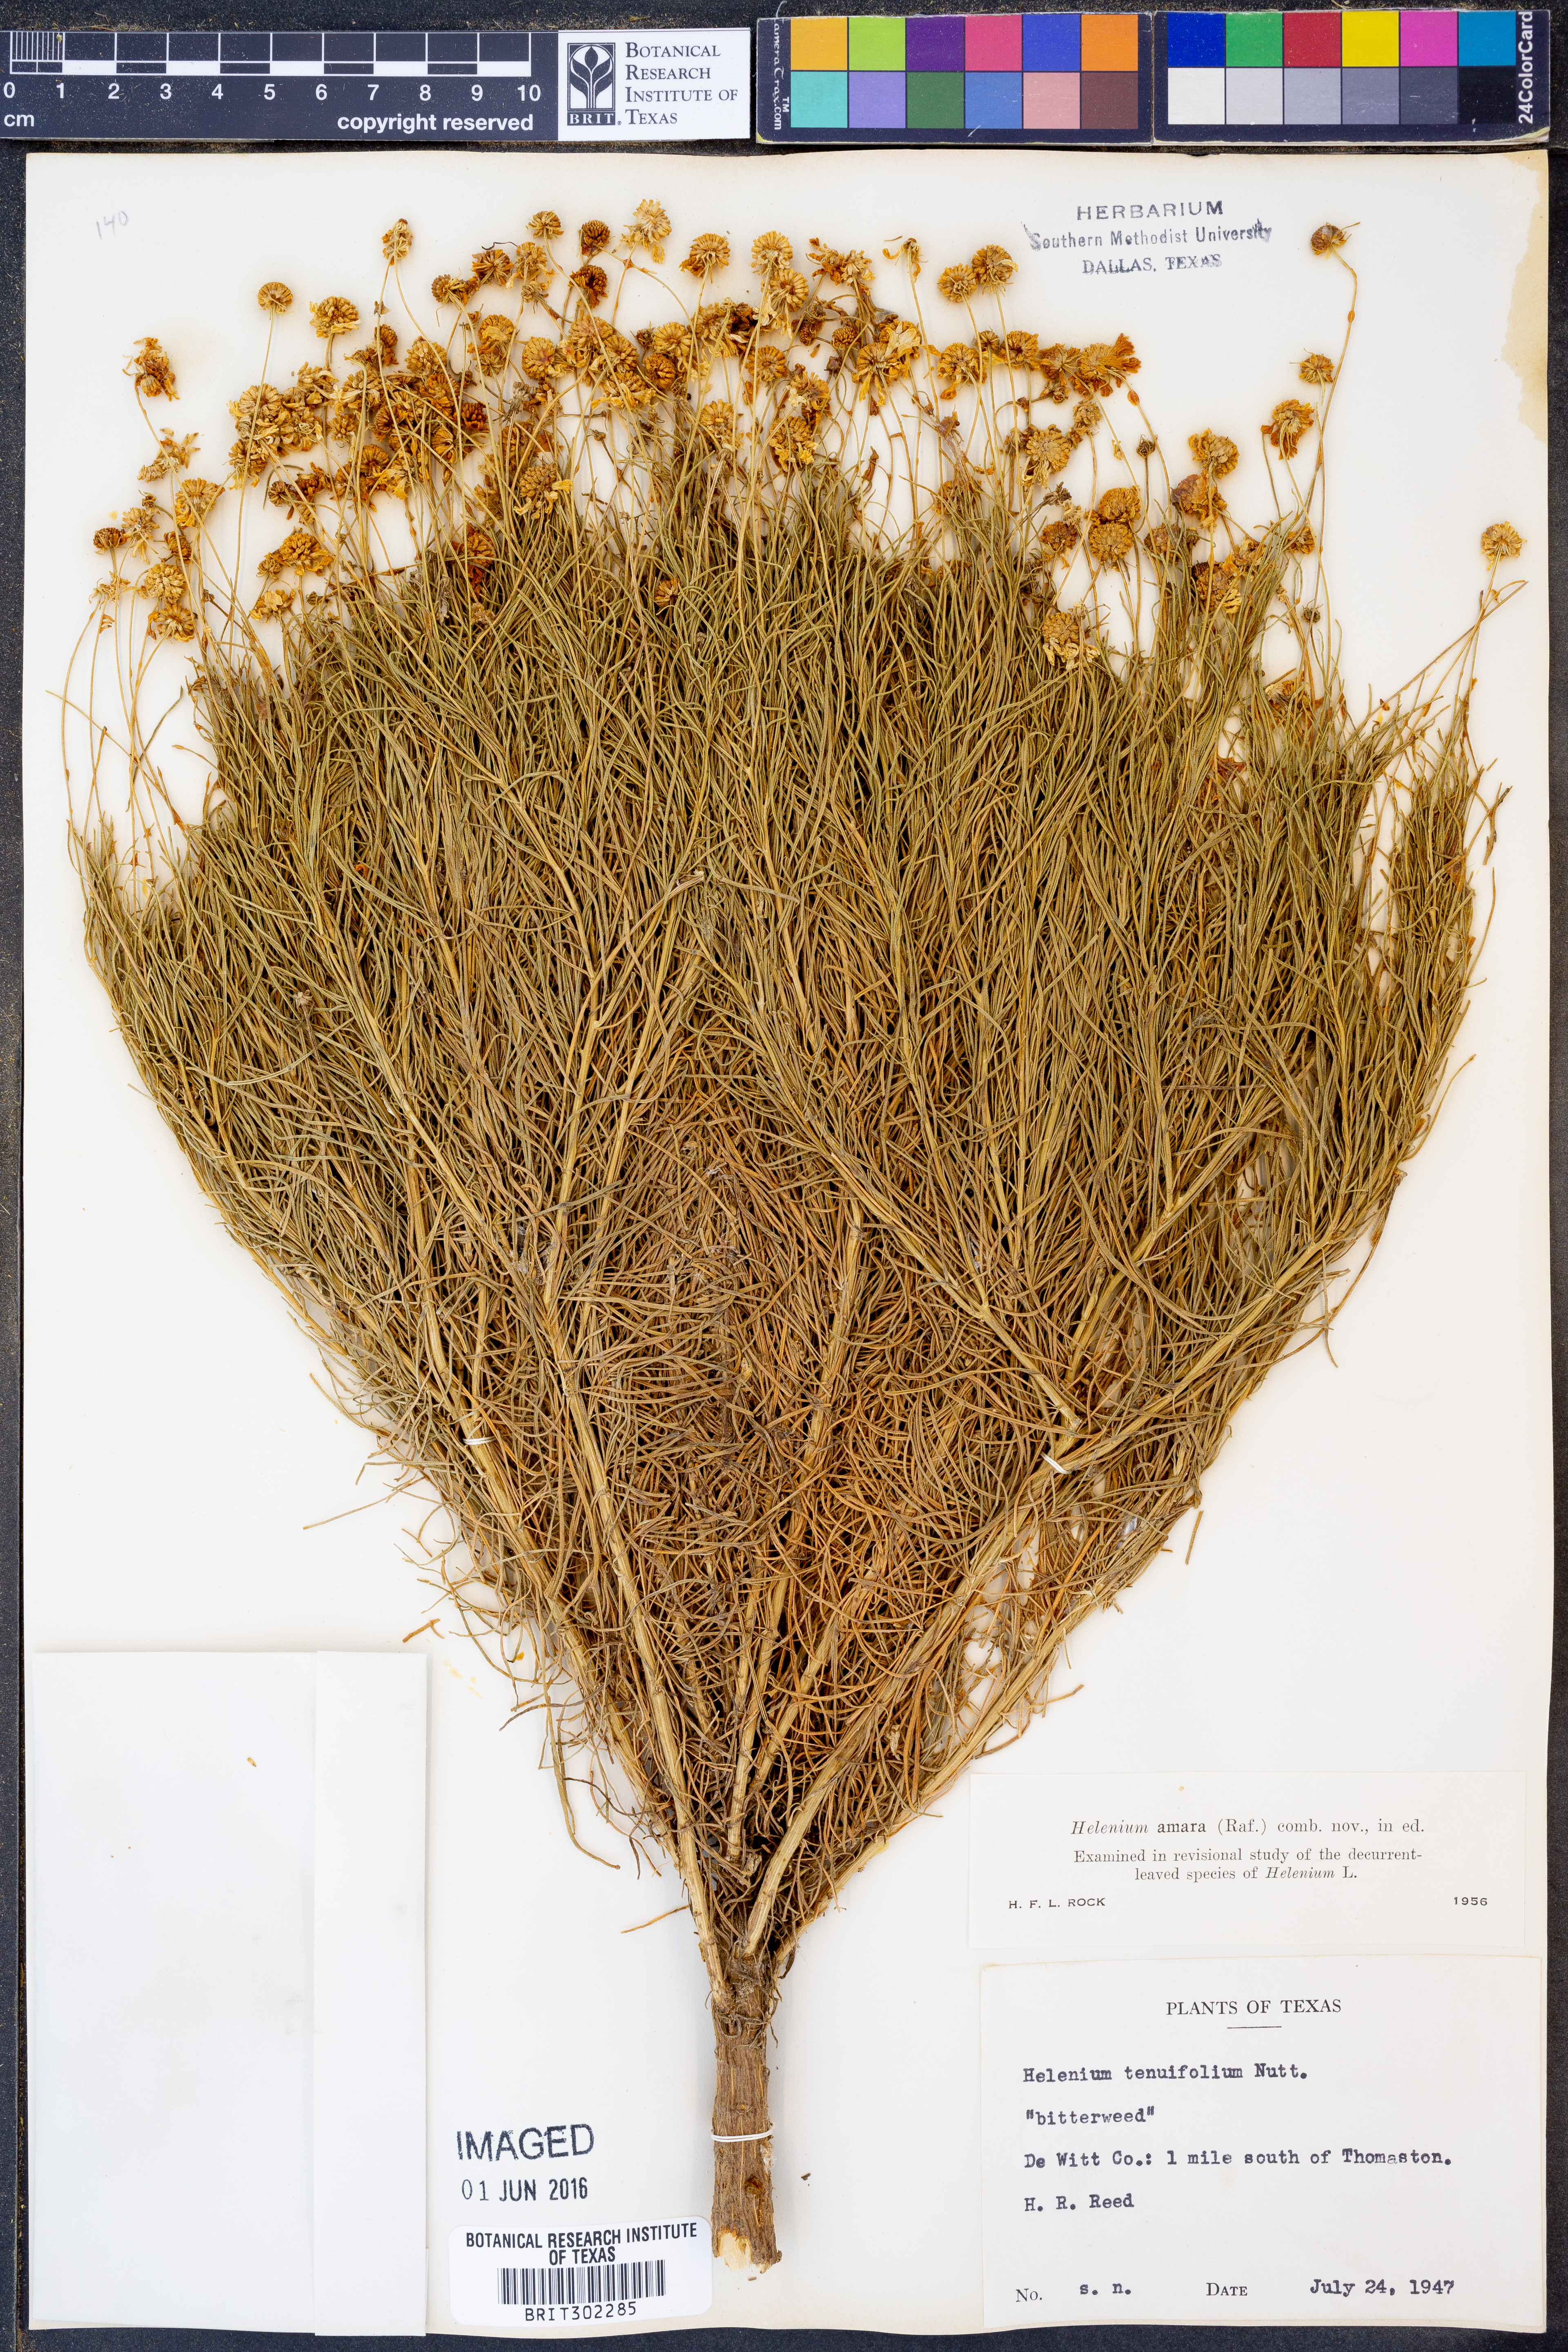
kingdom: Plantae
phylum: Tracheophyta
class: Magnoliopsida
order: Asterales
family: Asteraceae
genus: Helenium
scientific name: Helenium amarum
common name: Bitter sneezeweed
